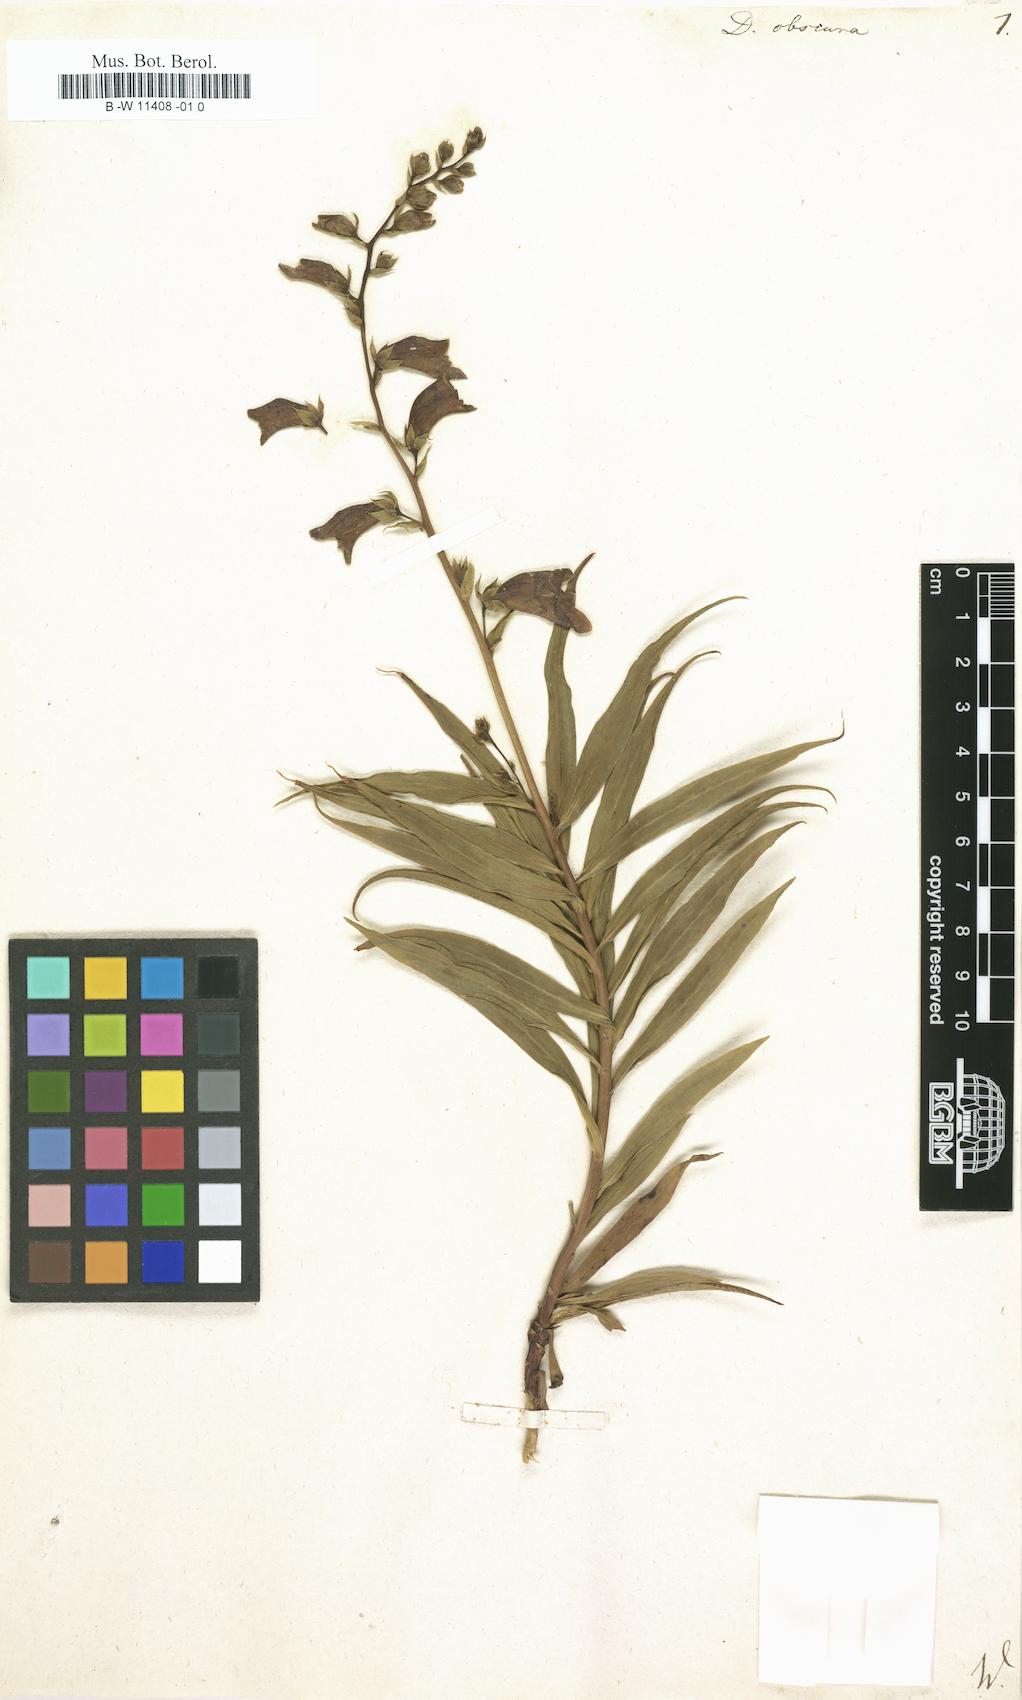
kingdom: Plantae
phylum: Tracheophyta
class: Magnoliopsida
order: Lamiales
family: Plantaginaceae
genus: Digitalis
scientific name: Digitalis obscura
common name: Willow-leaf foxglove
